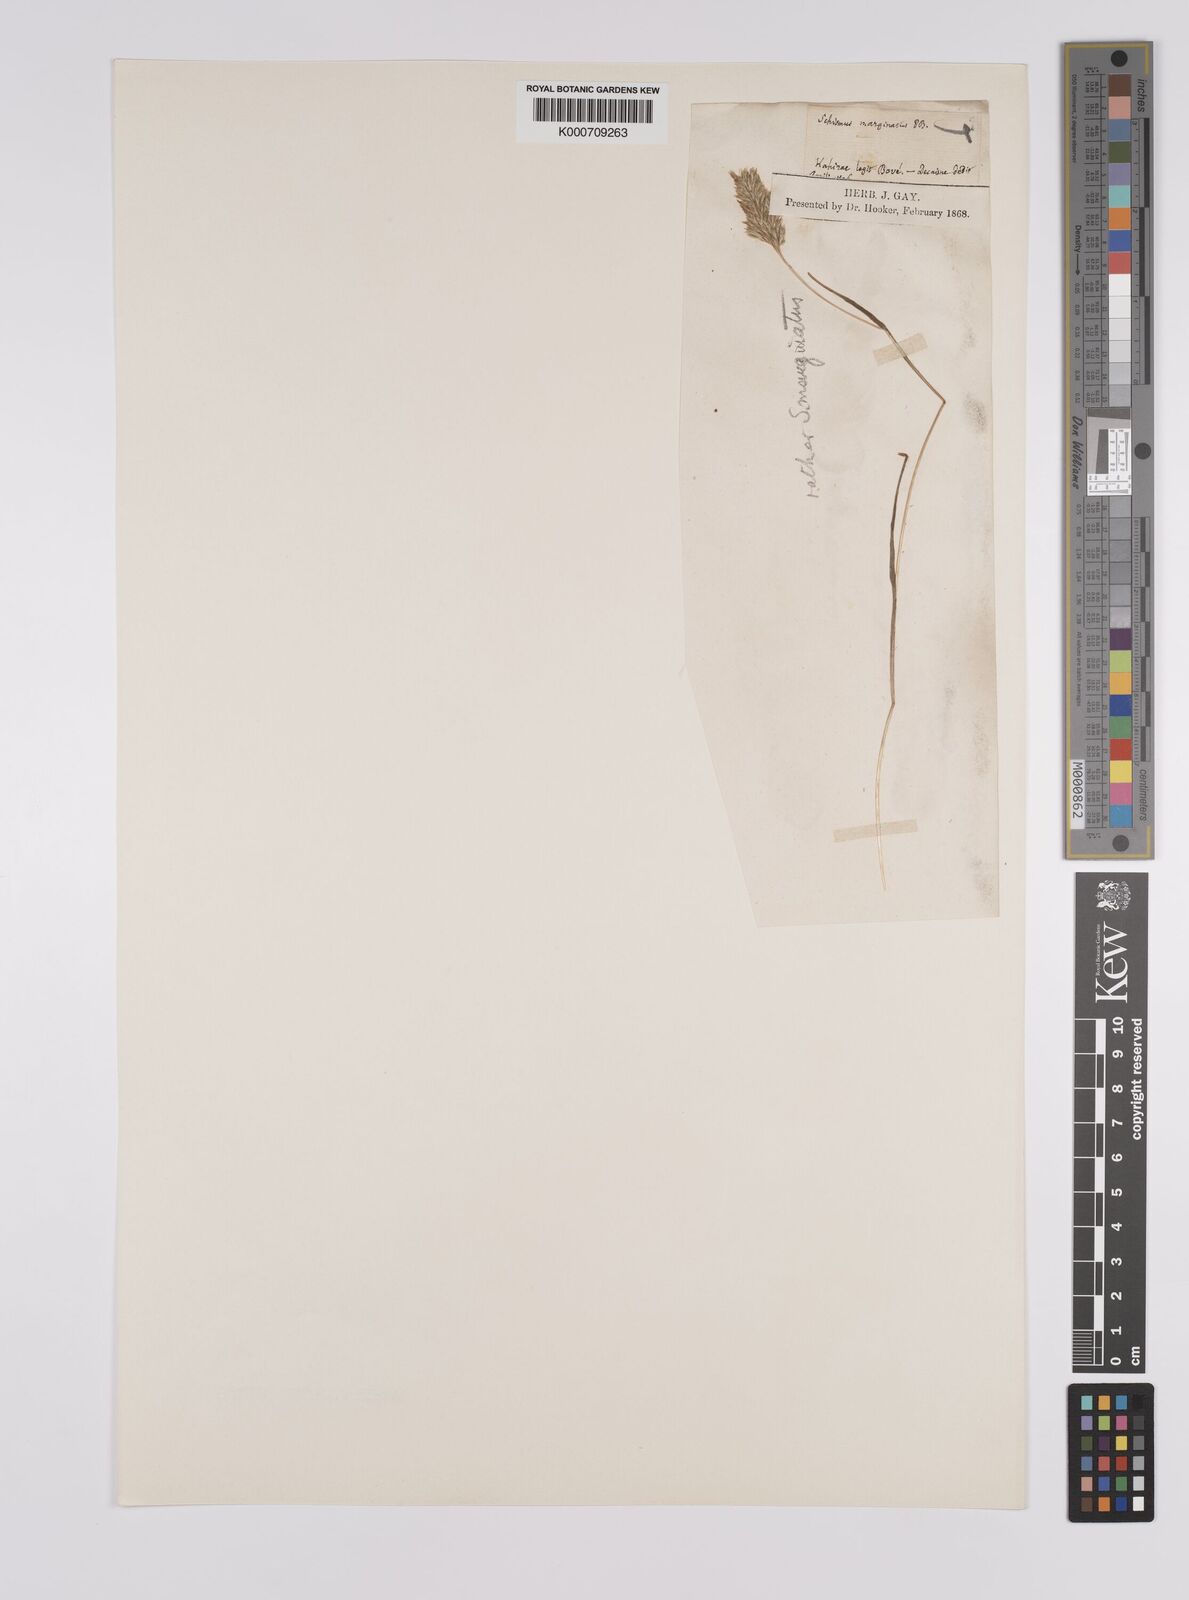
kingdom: Plantae
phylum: Tracheophyta
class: Liliopsida
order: Poales
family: Poaceae
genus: Schismus
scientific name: Schismus barbatus
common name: Kelch-grass
